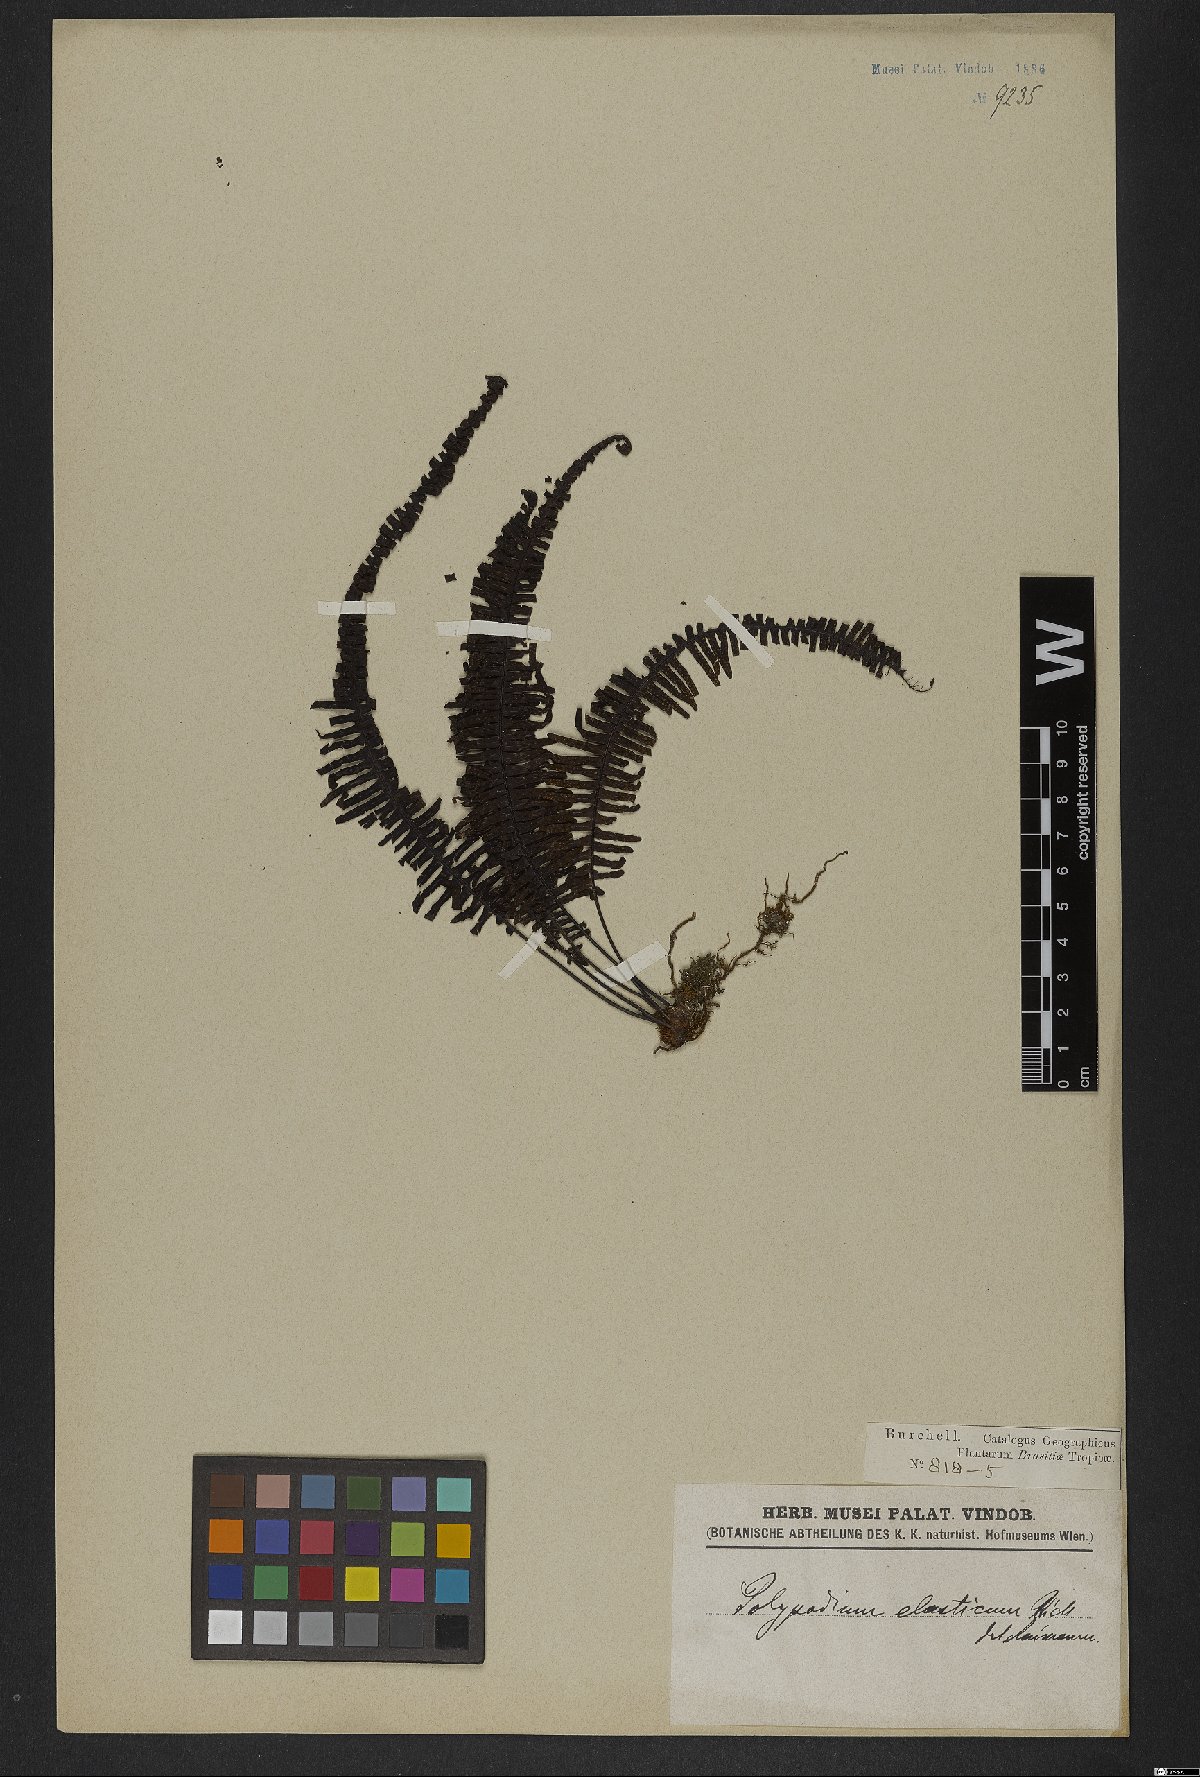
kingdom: Plantae
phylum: Tracheophyta
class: Polypodiopsida
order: Polypodiales
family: Polypodiaceae
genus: Pecluma
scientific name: Pecluma plumula
